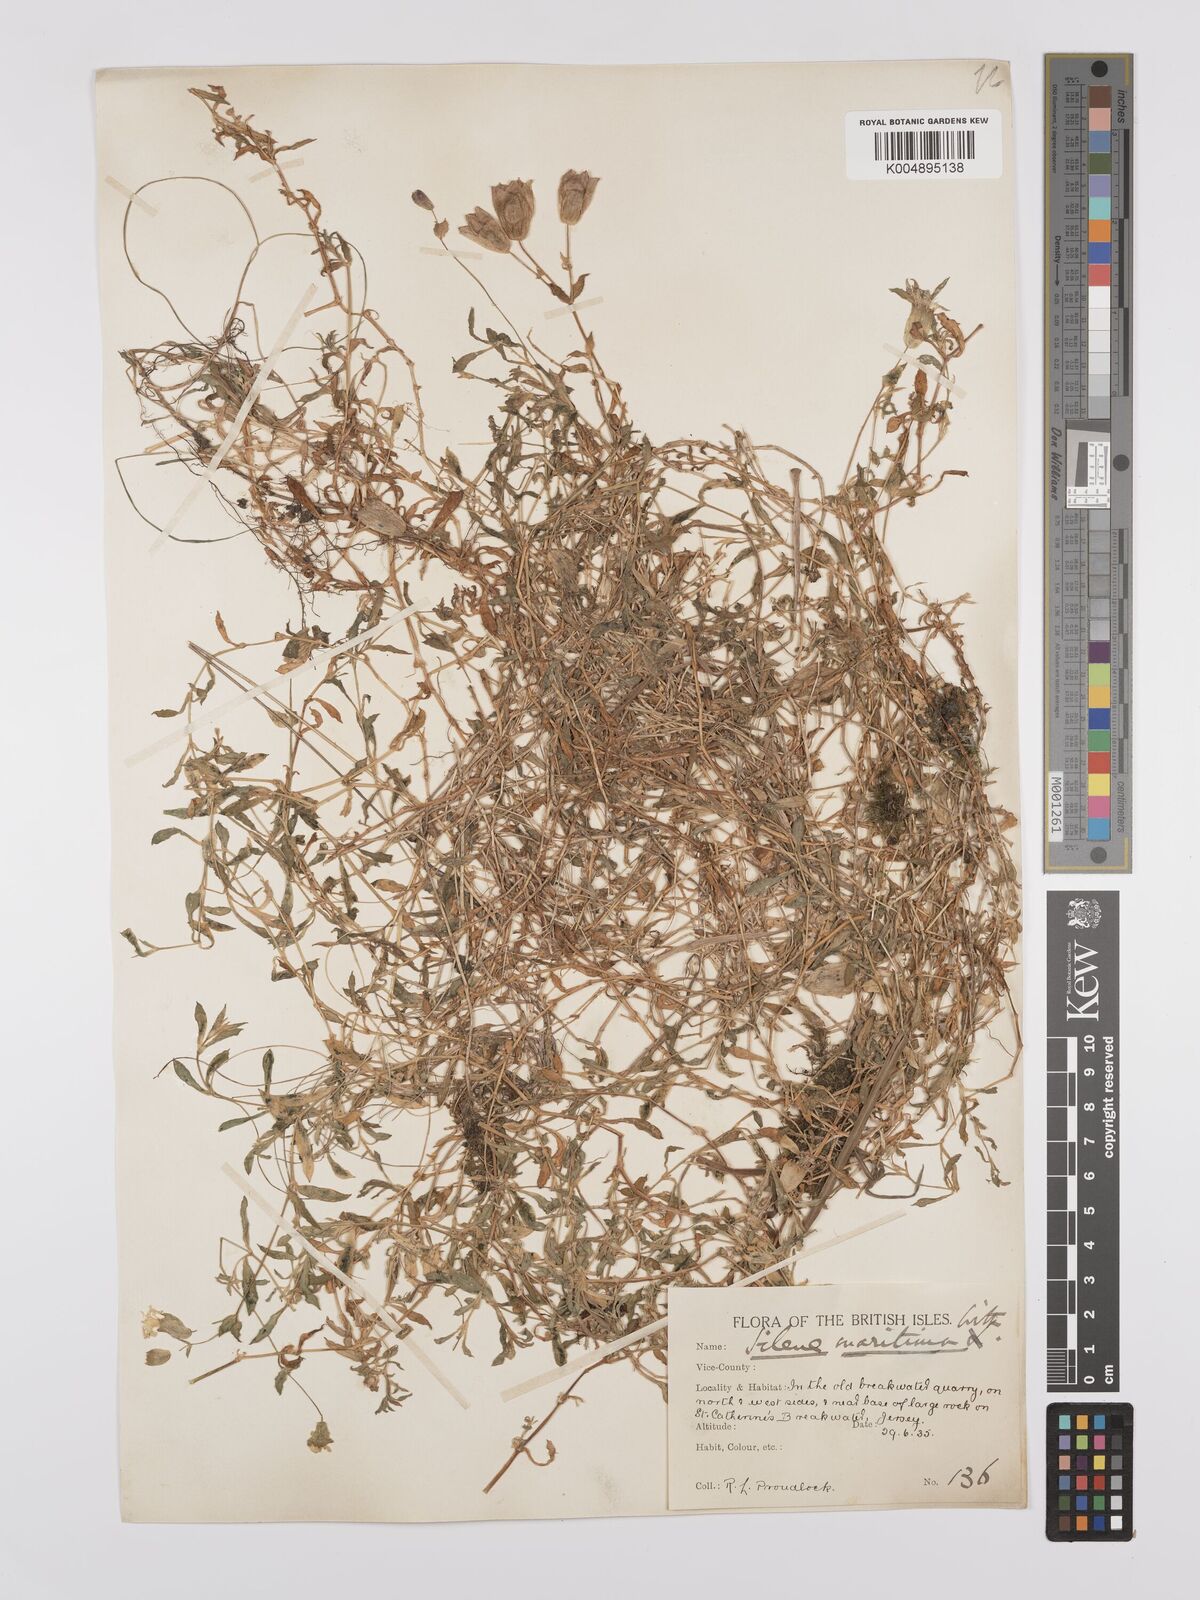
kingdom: Plantae
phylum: Tracheophyta
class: Magnoliopsida
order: Caryophyllales
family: Caryophyllaceae
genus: Silene
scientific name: Silene uniflora
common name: Sea campion
